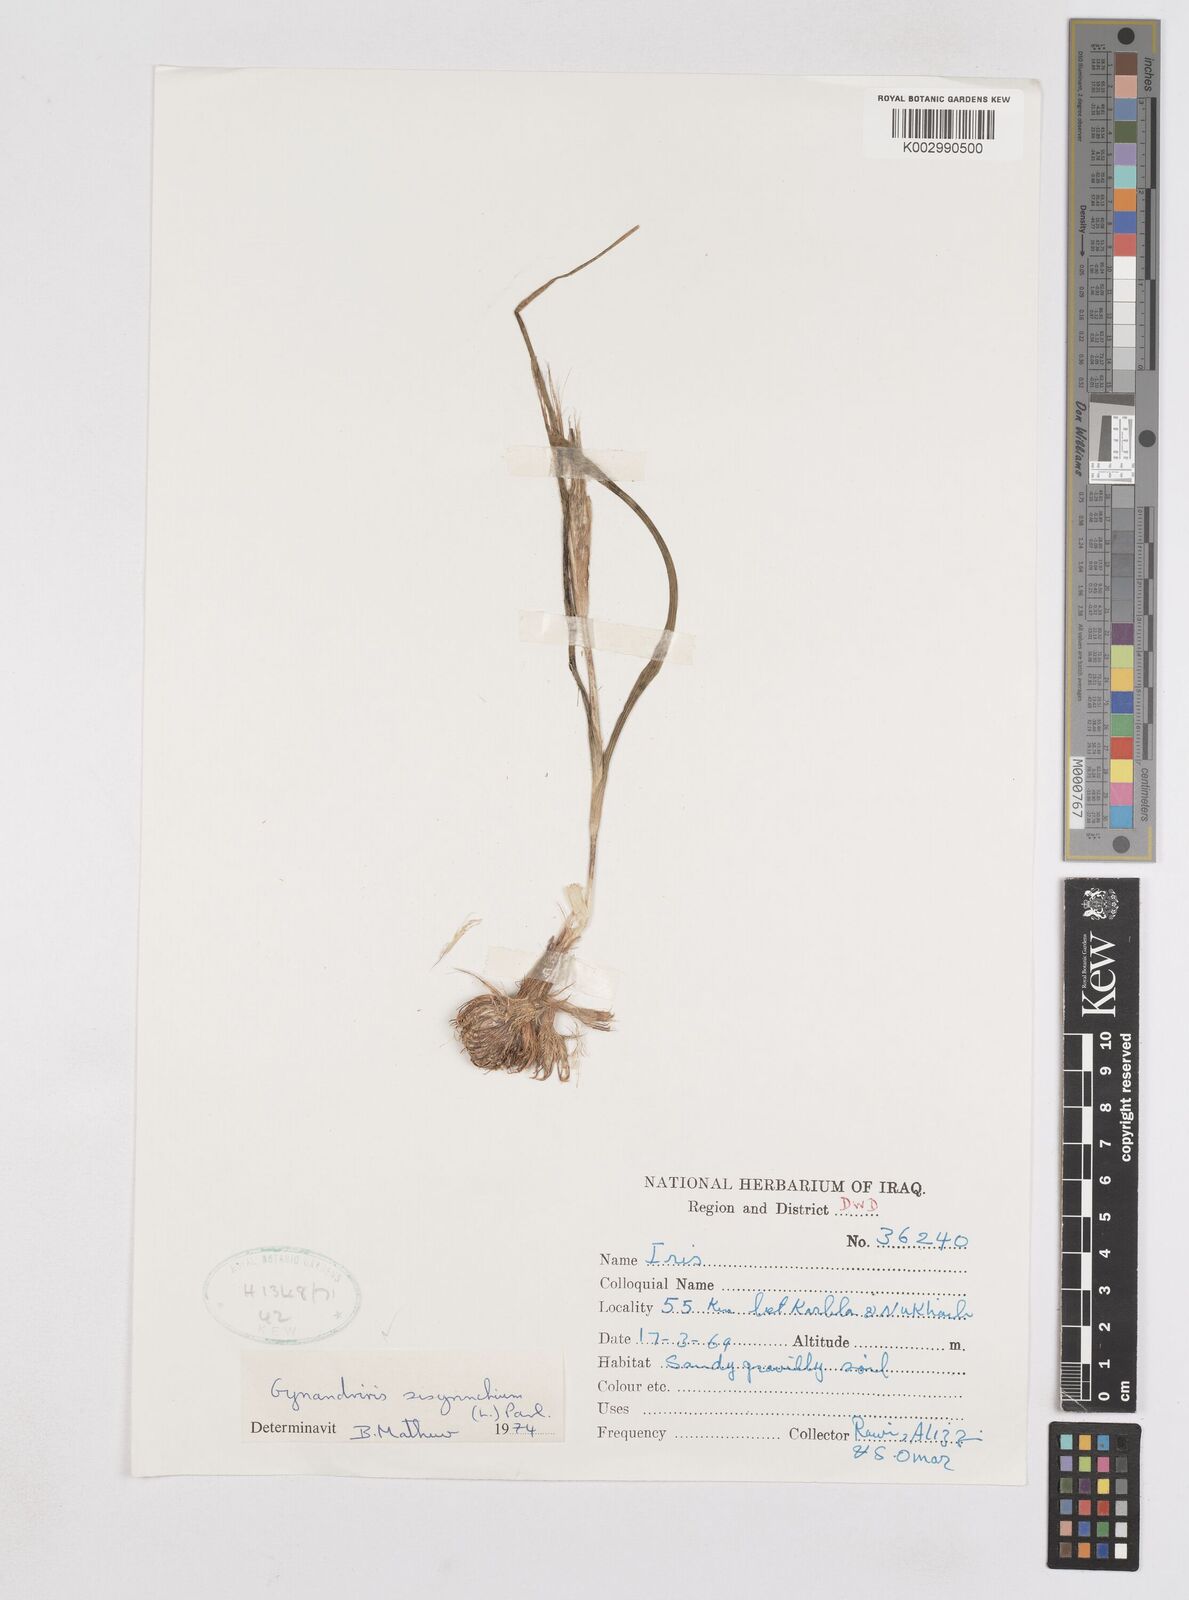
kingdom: Plantae
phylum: Tracheophyta
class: Liliopsida
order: Asparagales
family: Iridaceae
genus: Moraea
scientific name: Moraea sisyrinchium
